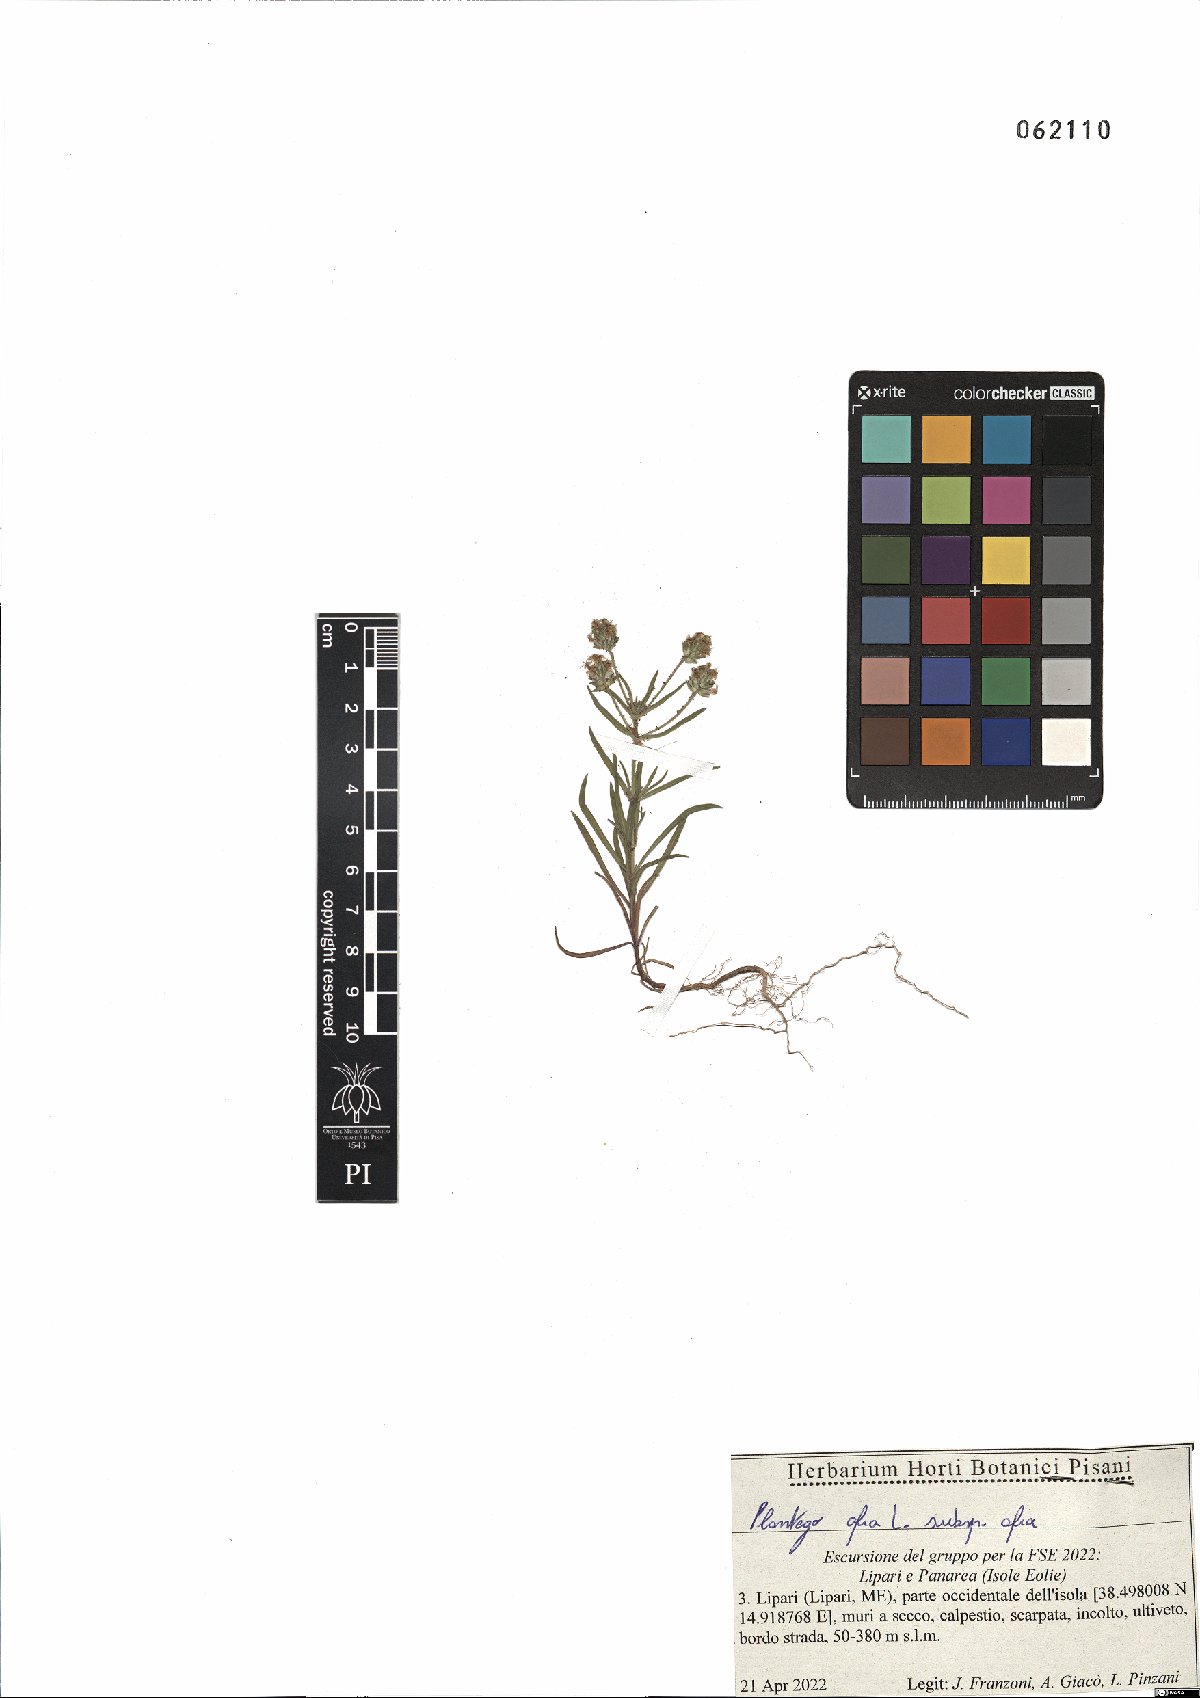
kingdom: Plantae
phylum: Tracheophyta
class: Magnoliopsida
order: Lamiales
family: Plantaginaceae
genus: Plantago
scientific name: Plantago afra
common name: Glandular plantain
